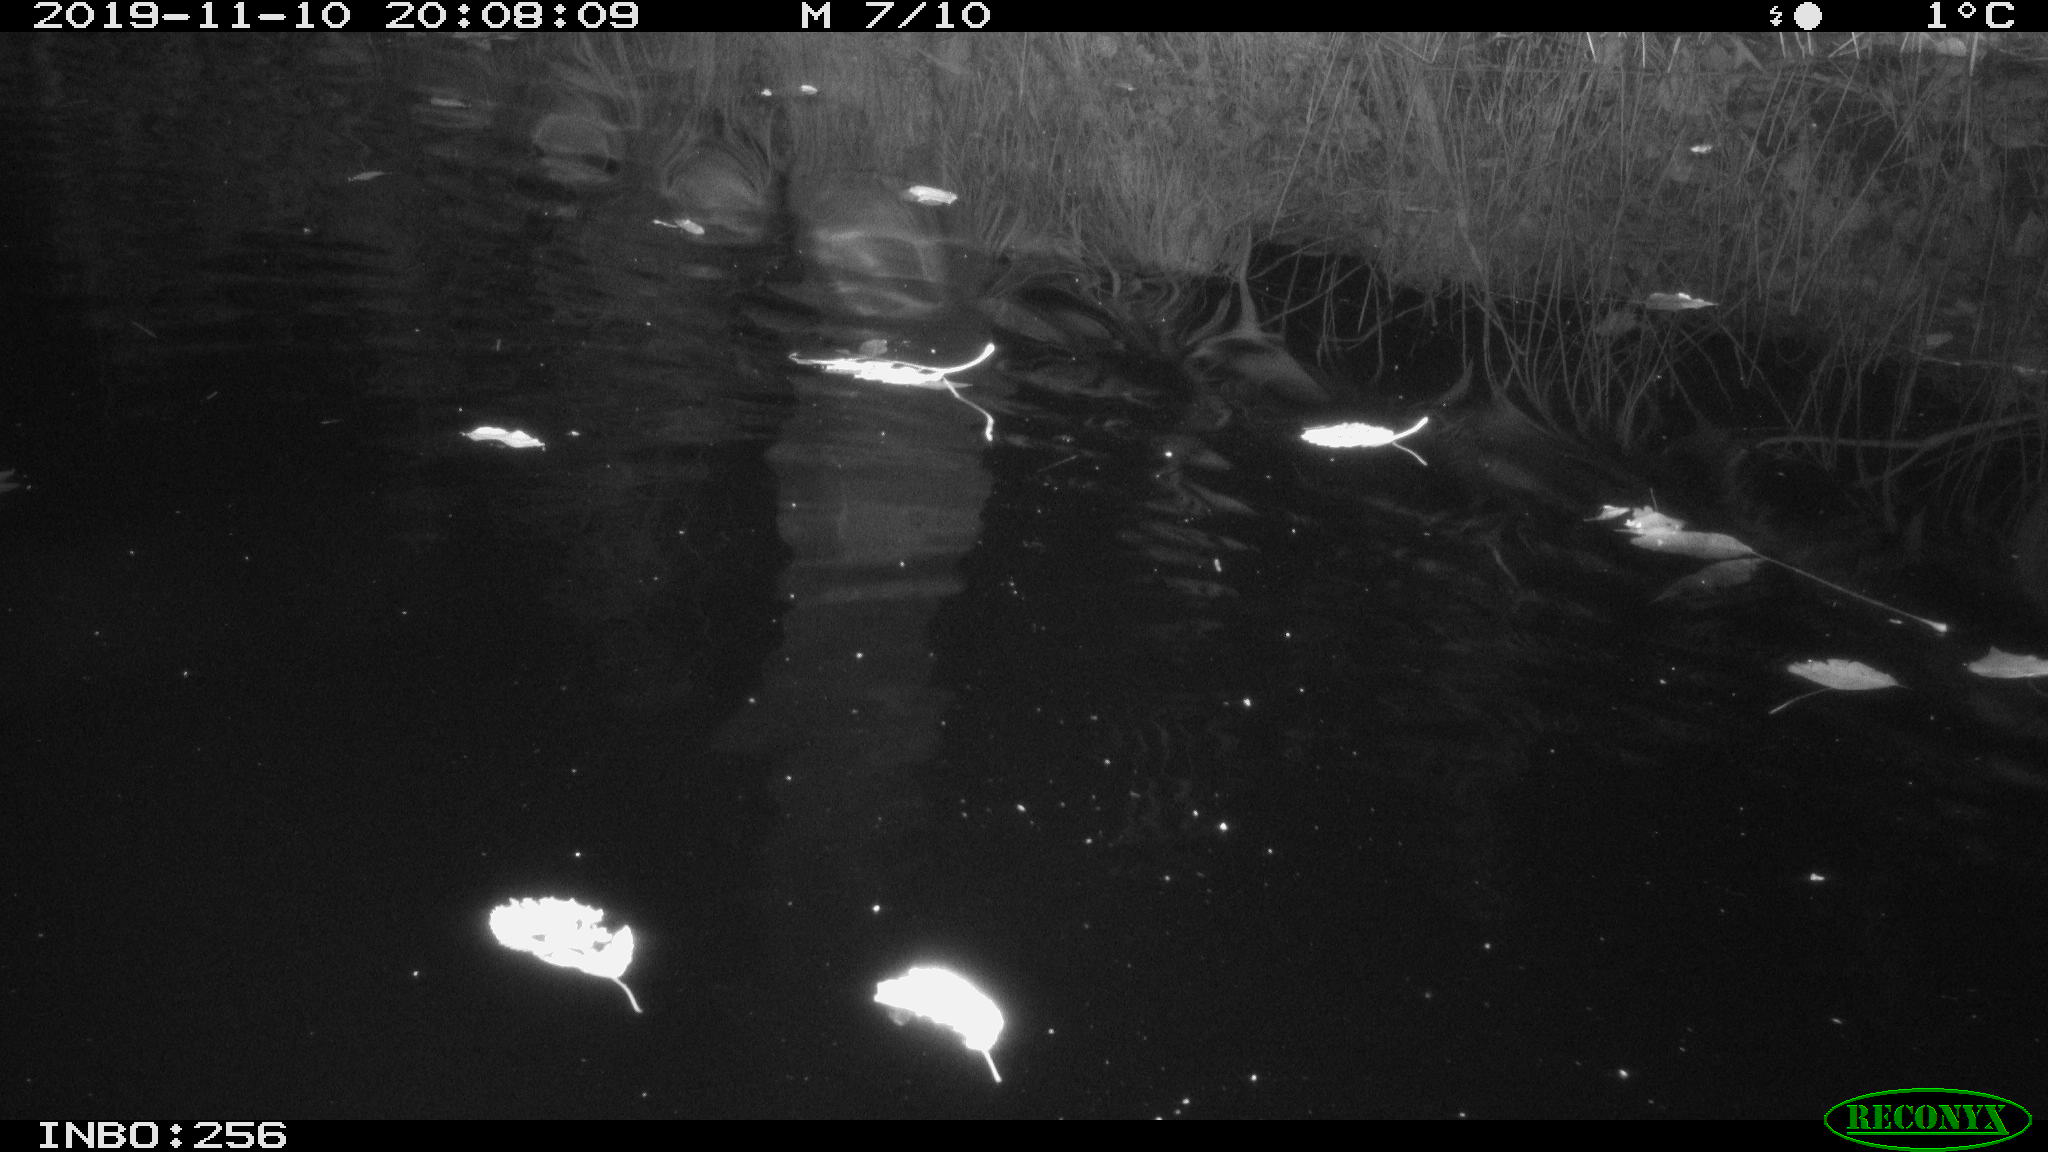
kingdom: Animalia
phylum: Chordata
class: Mammalia
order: Rodentia
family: Cricetidae
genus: Ondatra
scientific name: Ondatra zibethicus
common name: Muskrat
